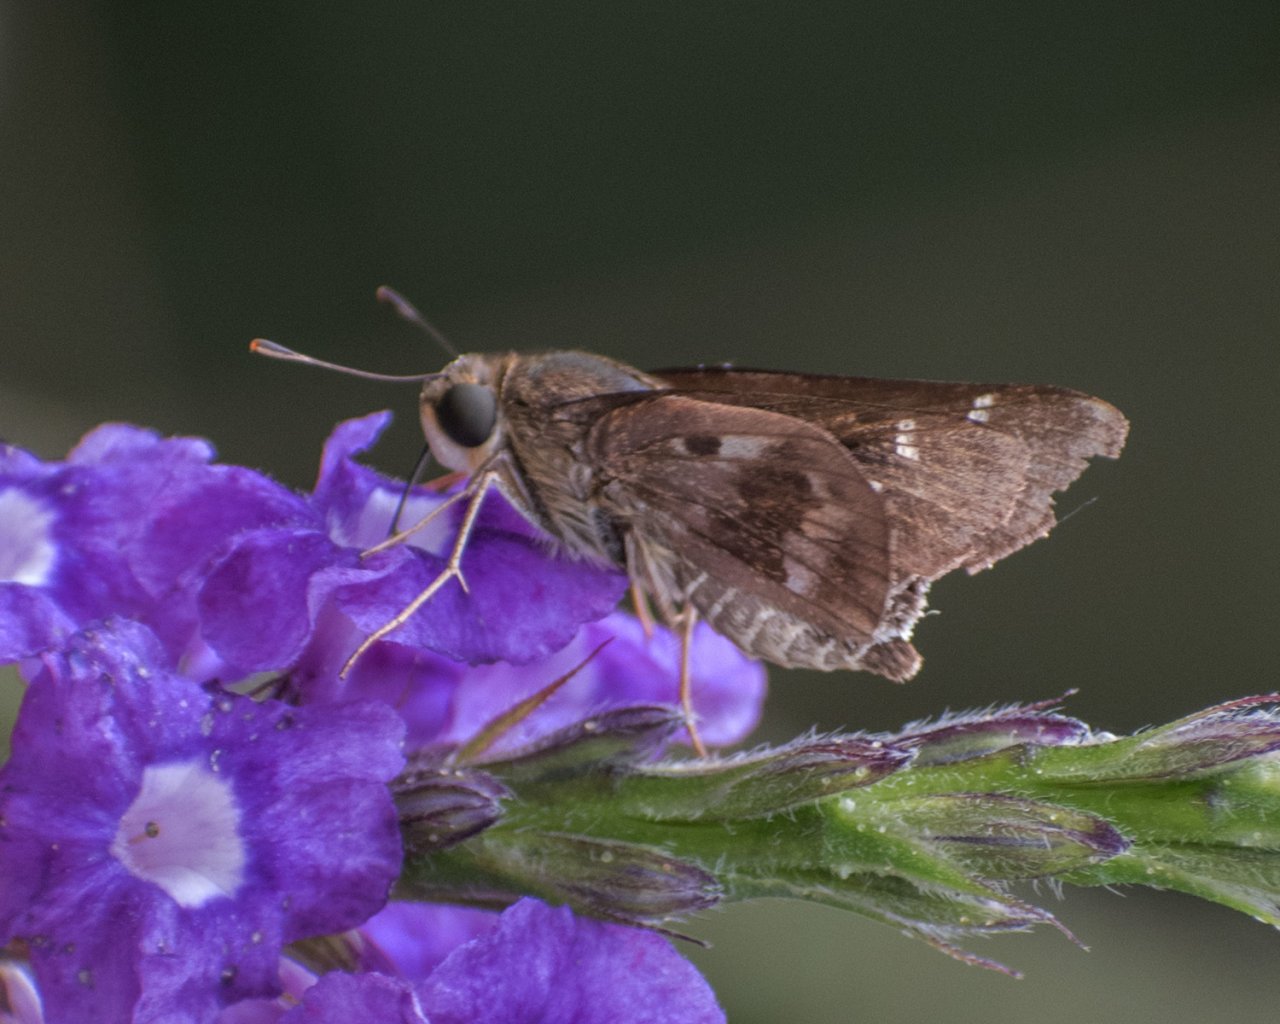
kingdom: Animalia
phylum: Arthropoda
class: Insecta
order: Lepidoptera
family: Hesperiidae
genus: Nyctelius
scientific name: Nyctelius nyctelius
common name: Violet-banded Skipper
